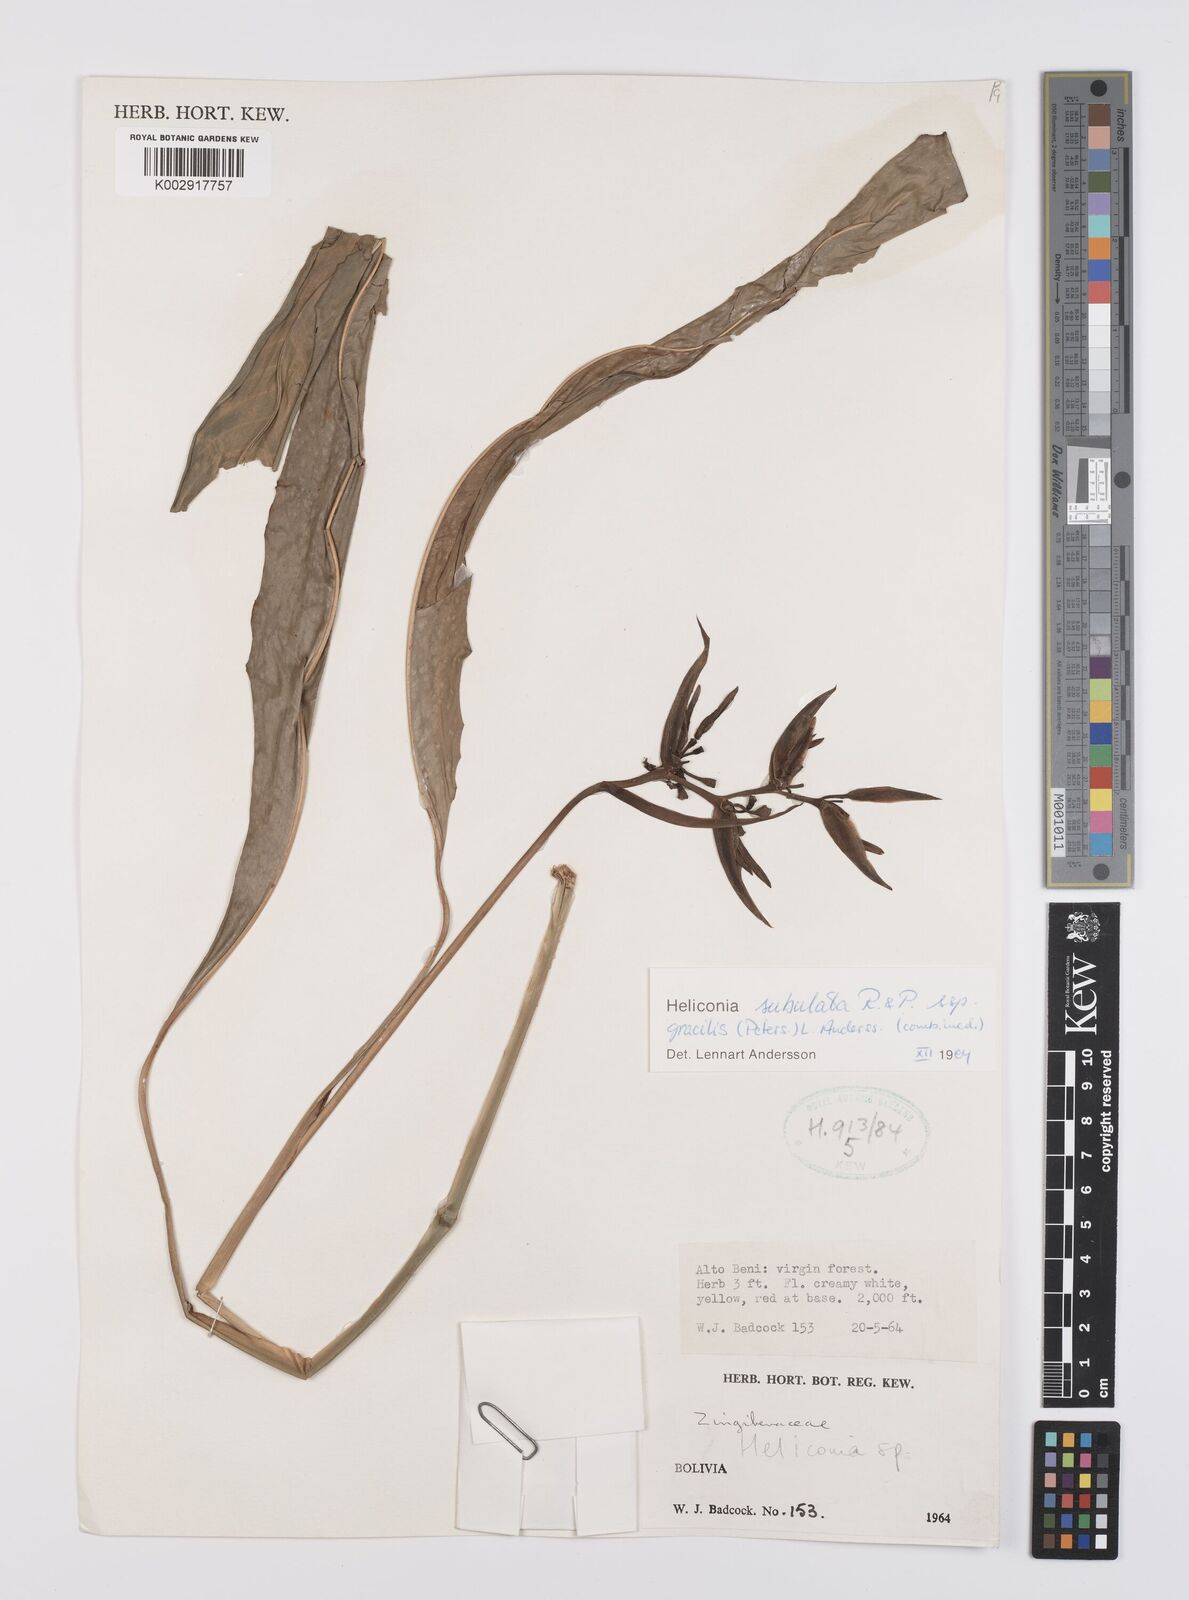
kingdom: Plantae
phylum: Tracheophyta
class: Liliopsida
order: Zingiberales
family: Heliconiaceae
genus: Heliconia
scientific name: Heliconia subulata
